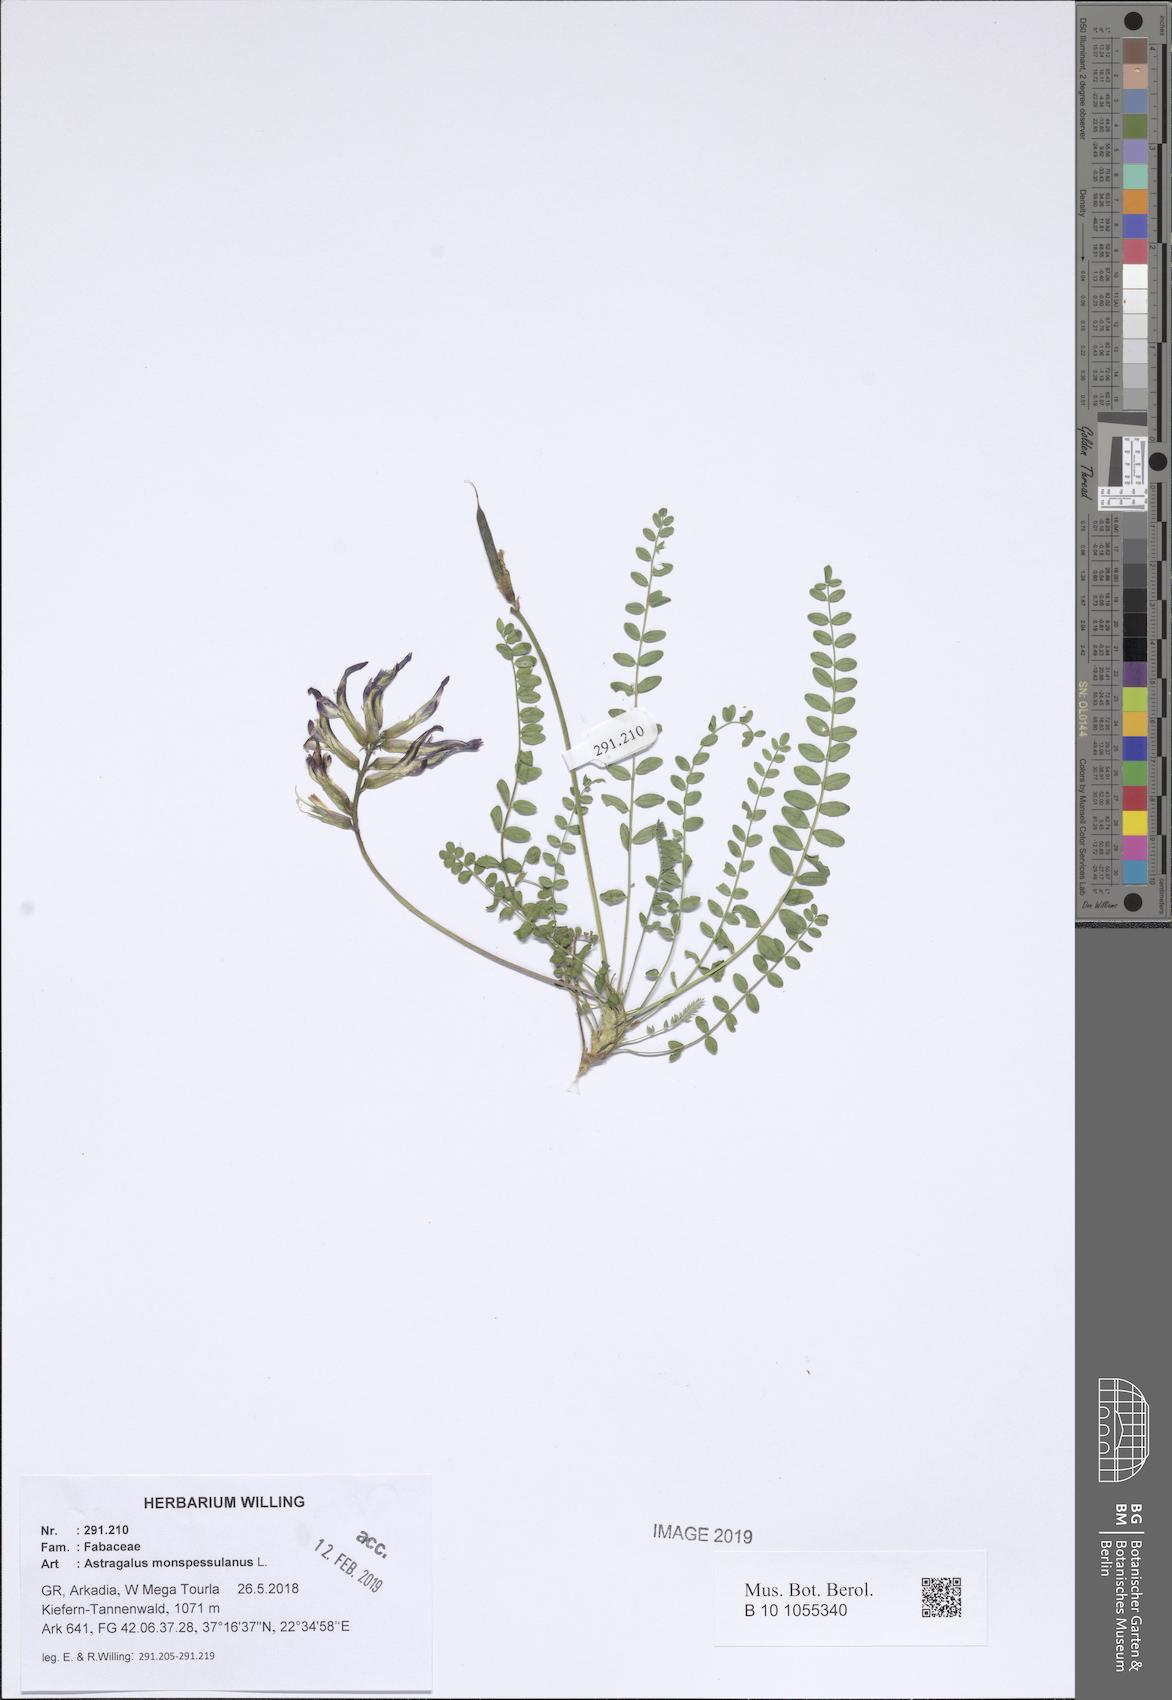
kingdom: Plantae
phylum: Tracheophyta
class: Magnoliopsida
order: Fabales
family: Fabaceae
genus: Astragalus
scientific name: Astragalus monspessulanus
